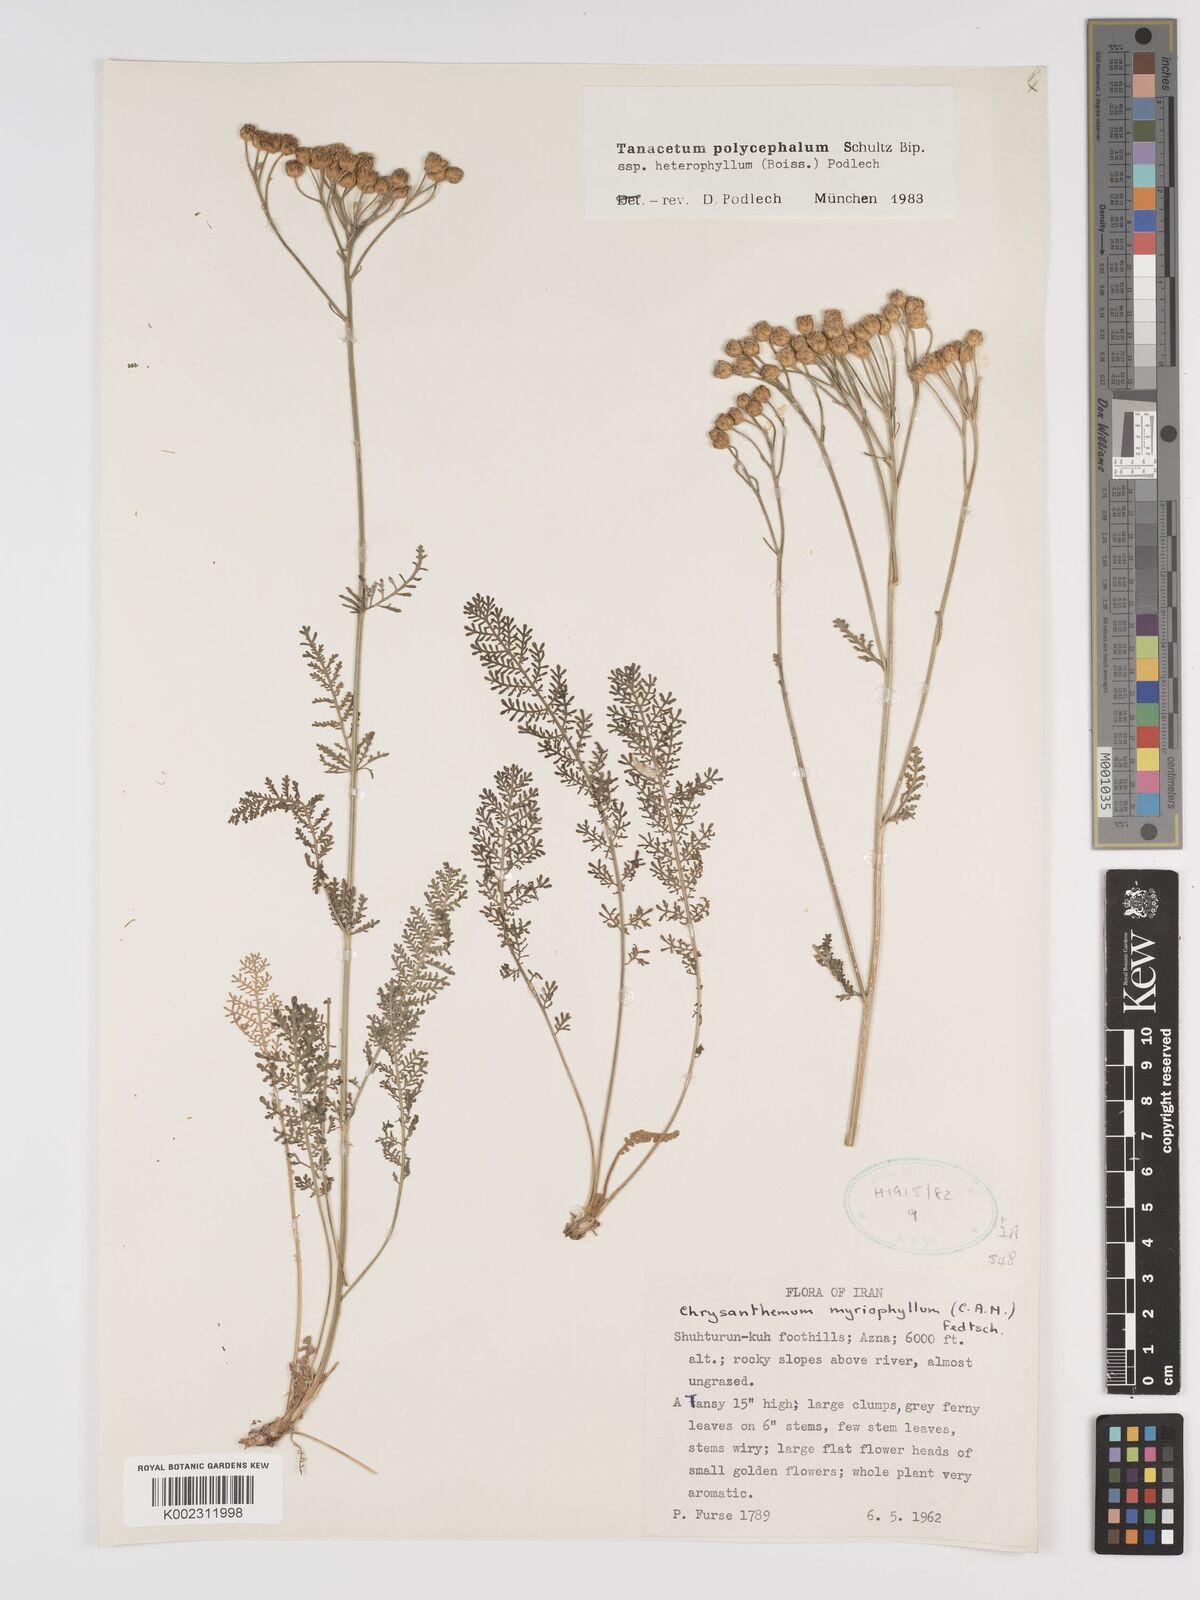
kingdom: Plantae
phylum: Tracheophyta
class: Magnoliopsida
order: Asterales
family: Asteraceae
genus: Tanacetum
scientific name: Tanacetum polycephalum
